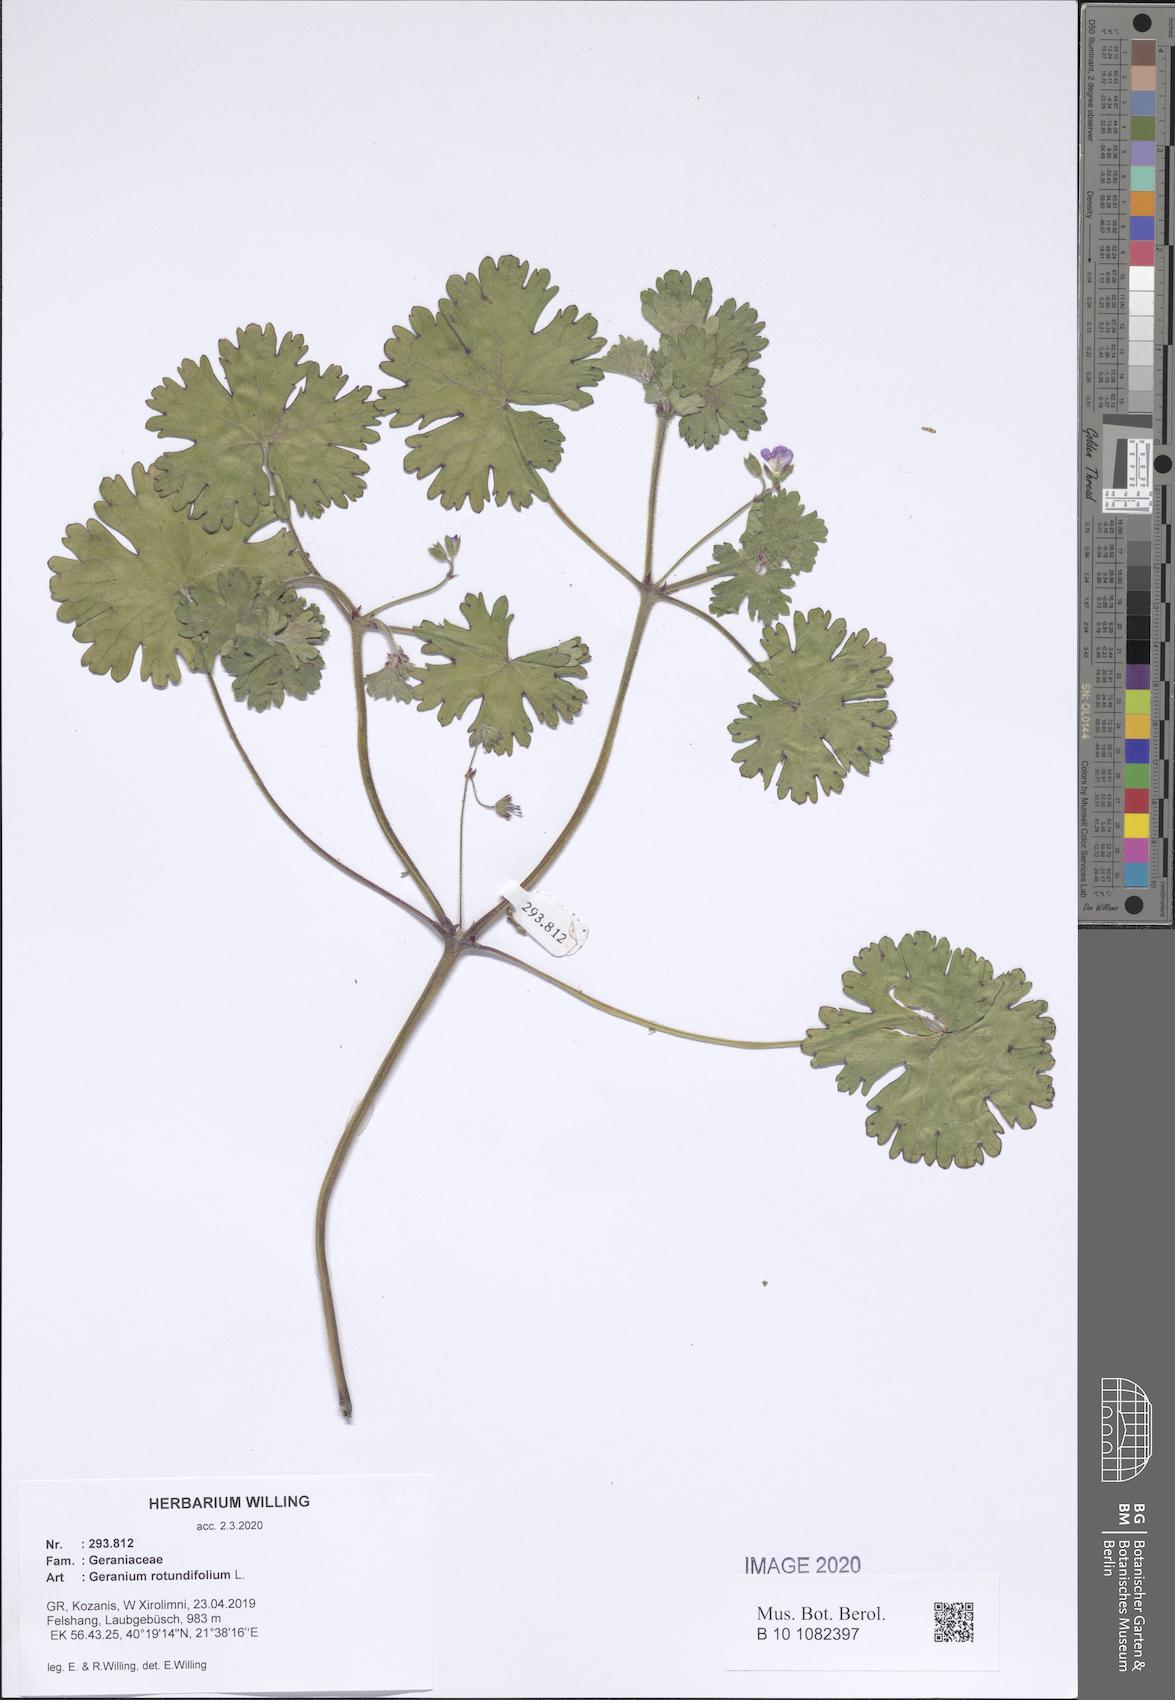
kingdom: Plantae
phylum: Tracheophyta
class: Magnoliopsida
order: Geraniales
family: Geraniaceae
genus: Geranium
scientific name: Geranium rotundifolium
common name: Round-leaved crane's-bill
